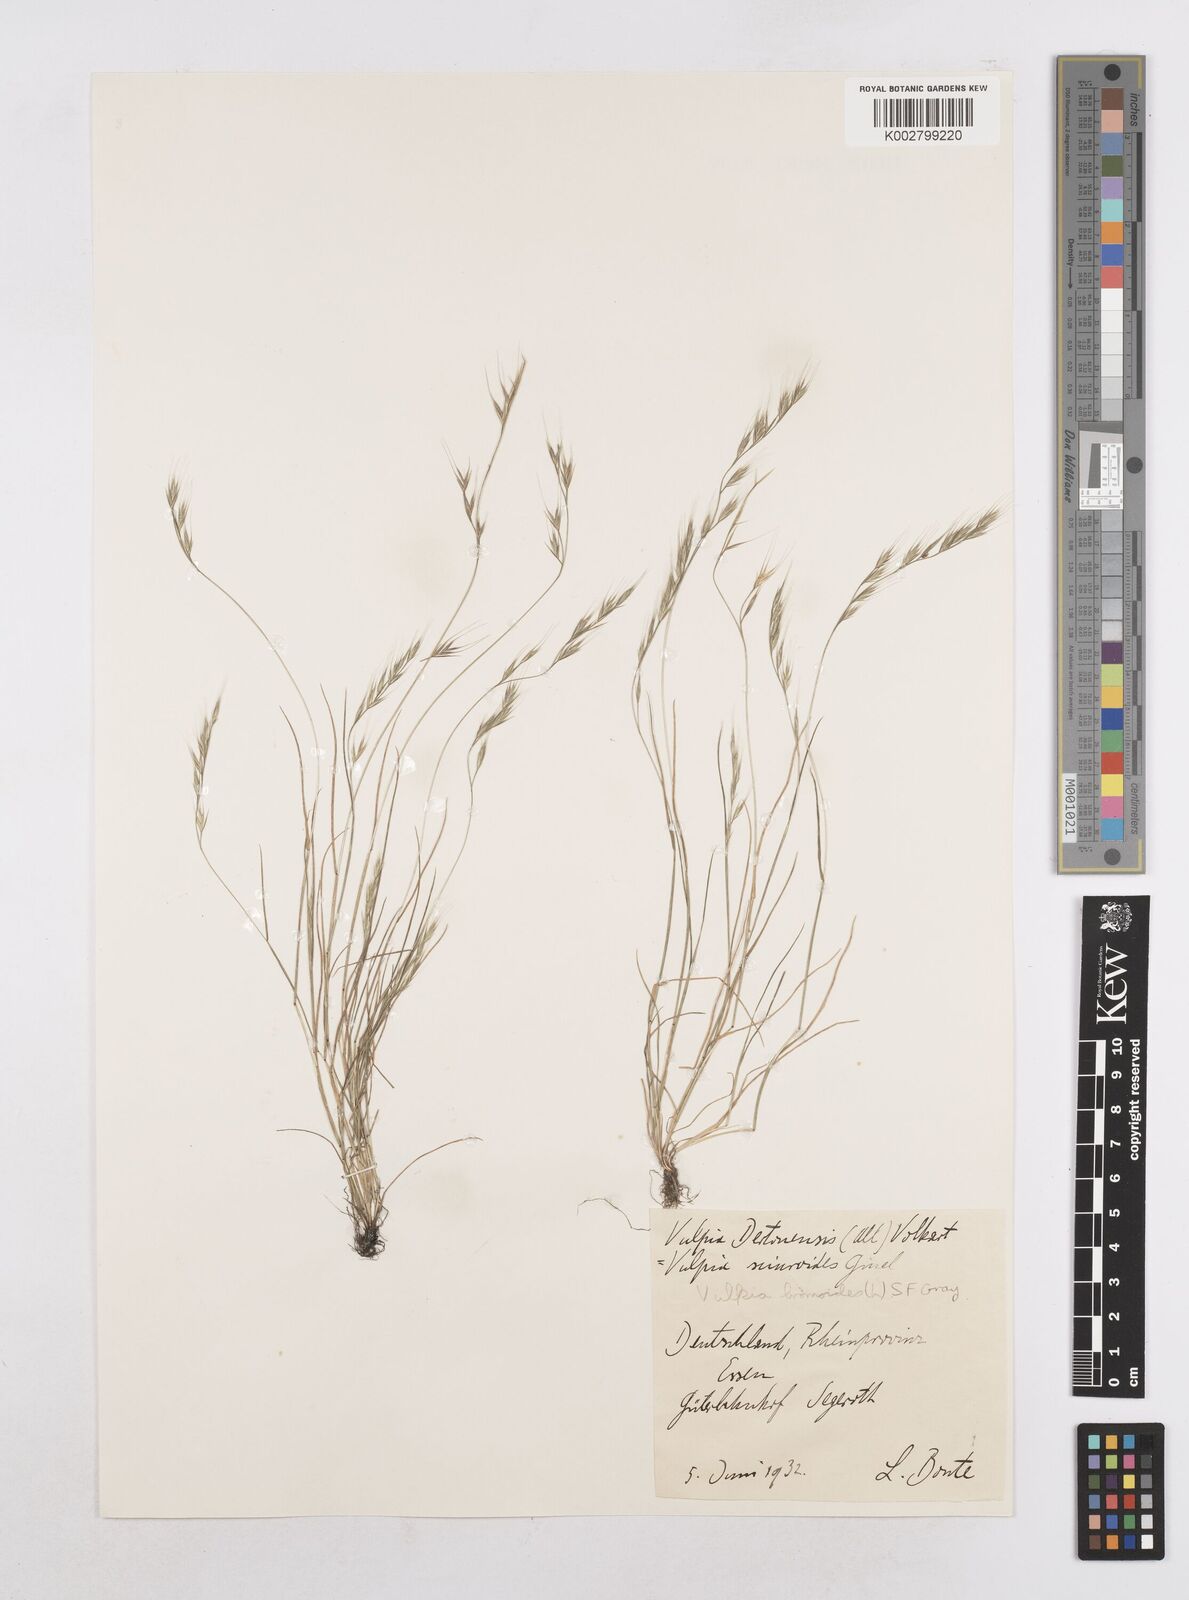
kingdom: Plantae
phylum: Tracheophyta
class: Liliopsida
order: Poales
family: Poaceae
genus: Festuca
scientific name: Festuca bromoides
